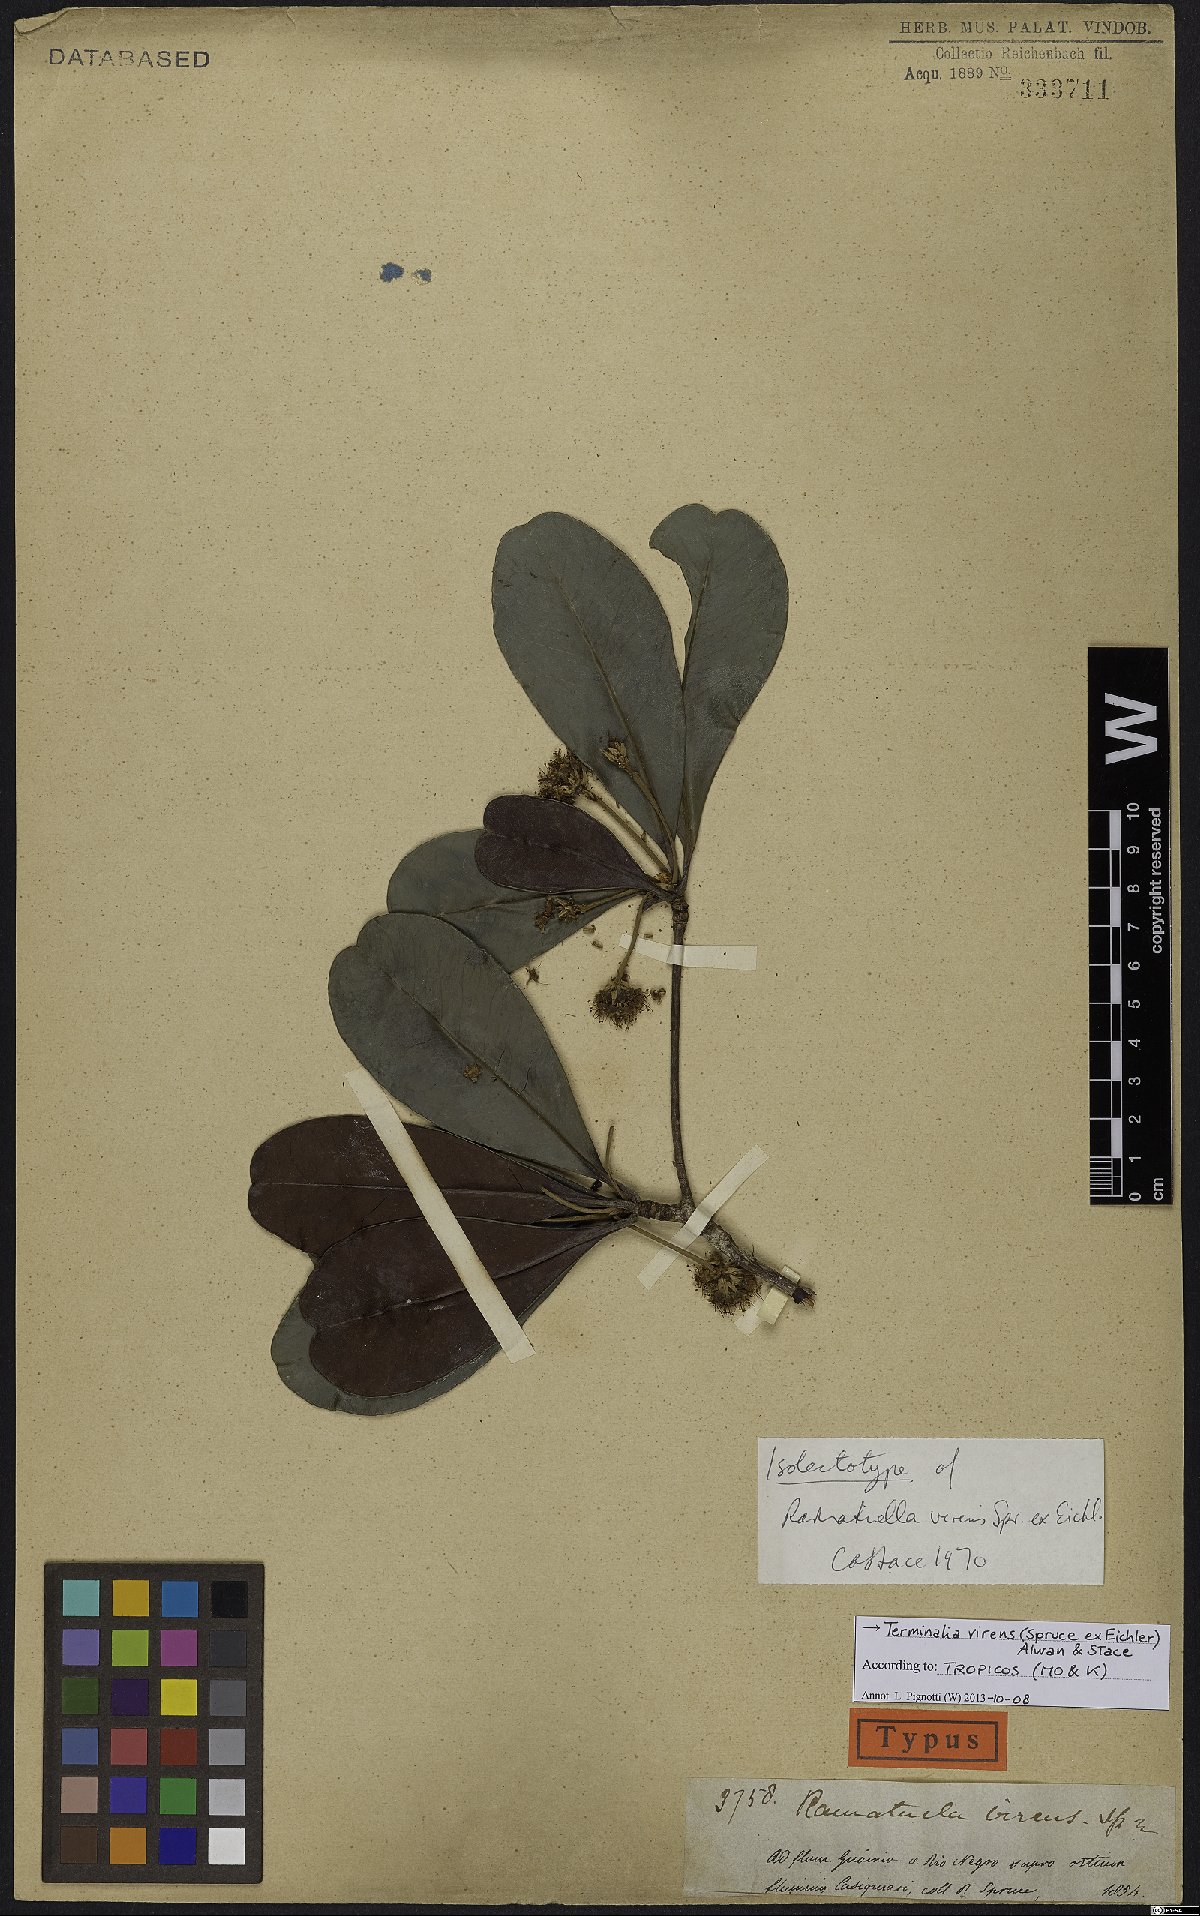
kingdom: Plantae
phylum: Tracheophyta
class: Magnoliopsida
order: Myrtales
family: Combretaceae
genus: Terminalia
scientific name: Terminalia virens
